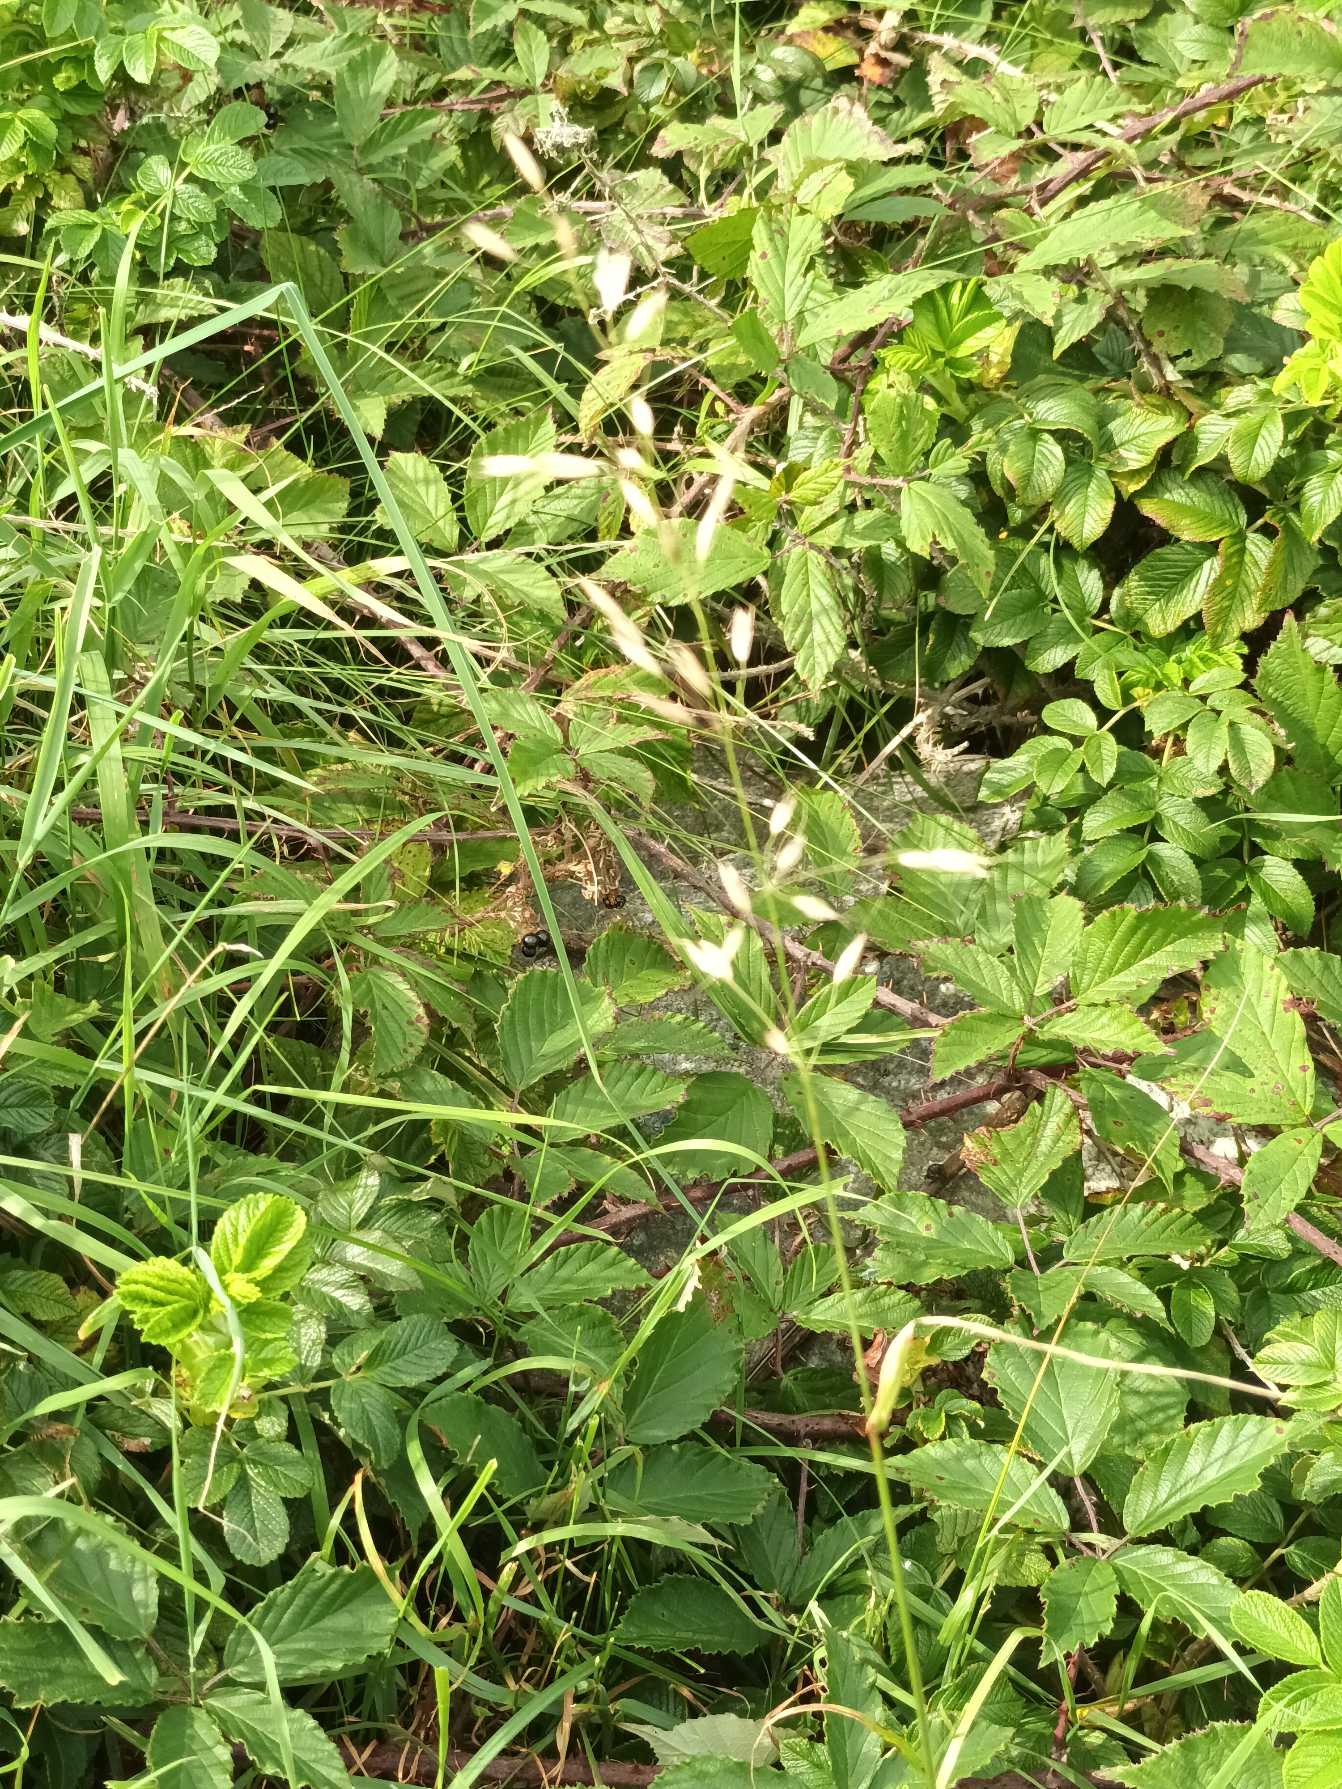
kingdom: Plantae
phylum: Tracheophyta
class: Liliopsida
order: Poales
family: Poaceae
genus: Arrhenatherum
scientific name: Arrhenatherum elatius
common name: Draphavre
